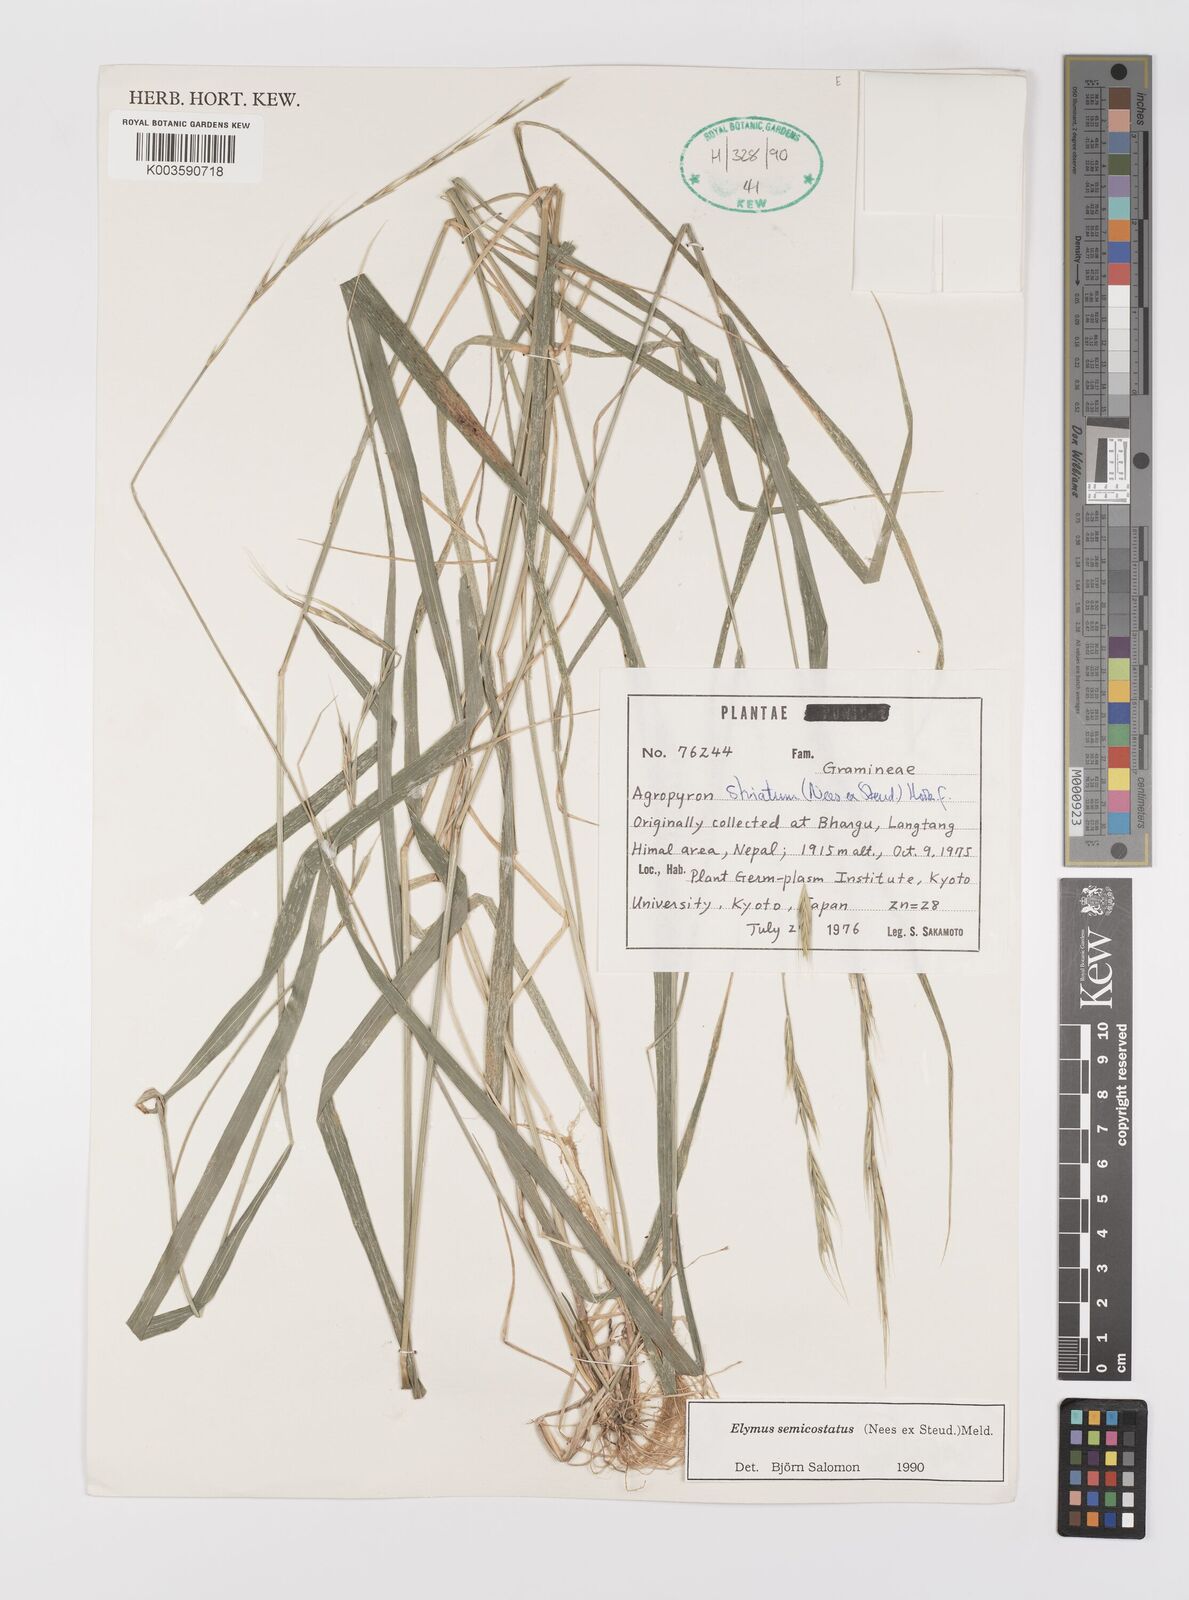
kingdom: Plantae
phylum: Tracheophyta
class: Liliopsida
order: Poales
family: Poaceae
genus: Elymus
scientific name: Elymus semicostatus
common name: Drooping wildrye
